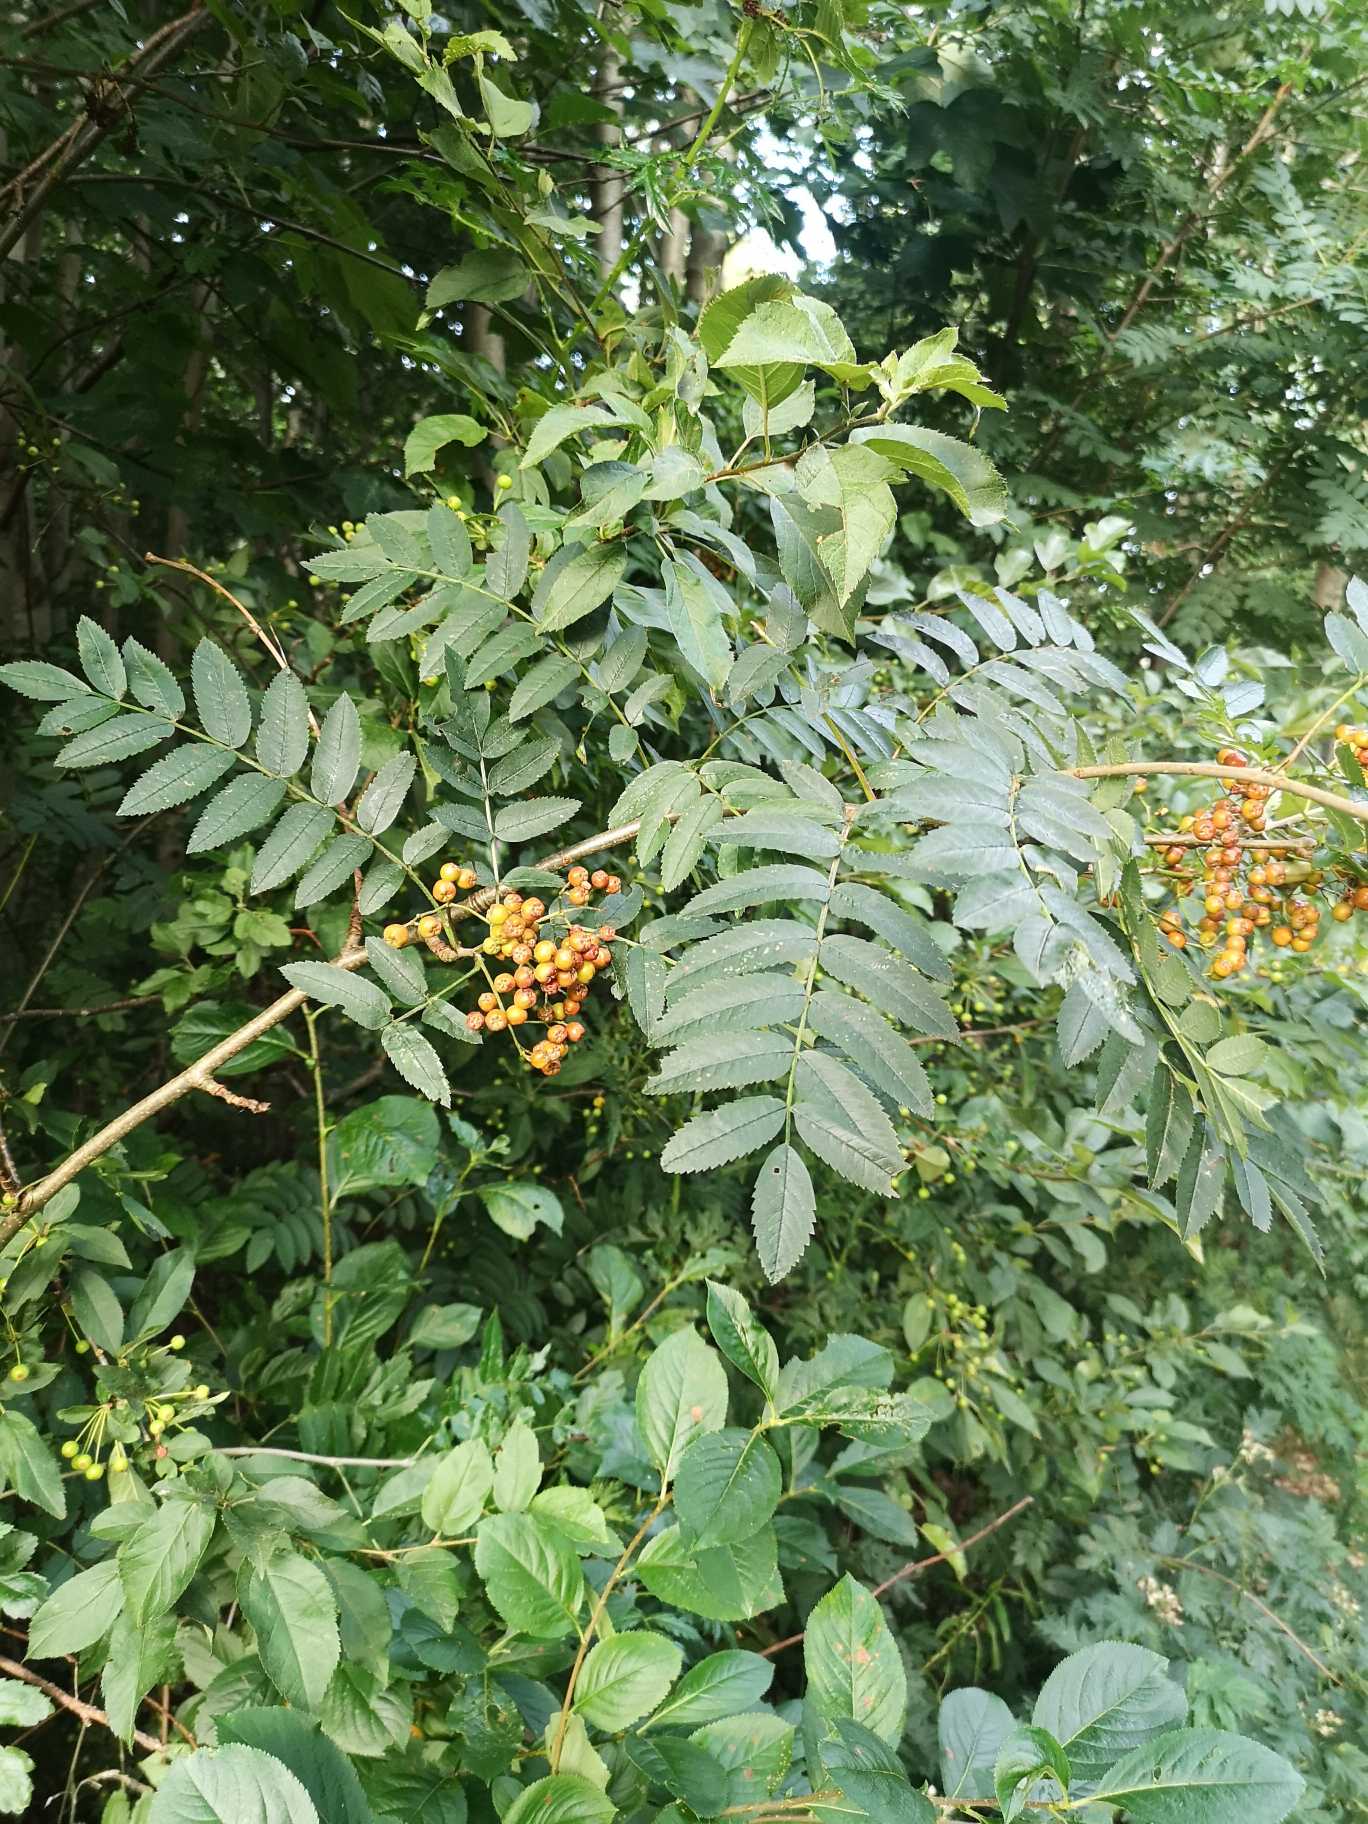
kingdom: Plantae
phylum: Tracheophyta
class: Magnoliopsida
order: Rosales
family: Rosaceae
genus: Sorbus
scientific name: Sorbus aucuparia
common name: Almindelig røn
